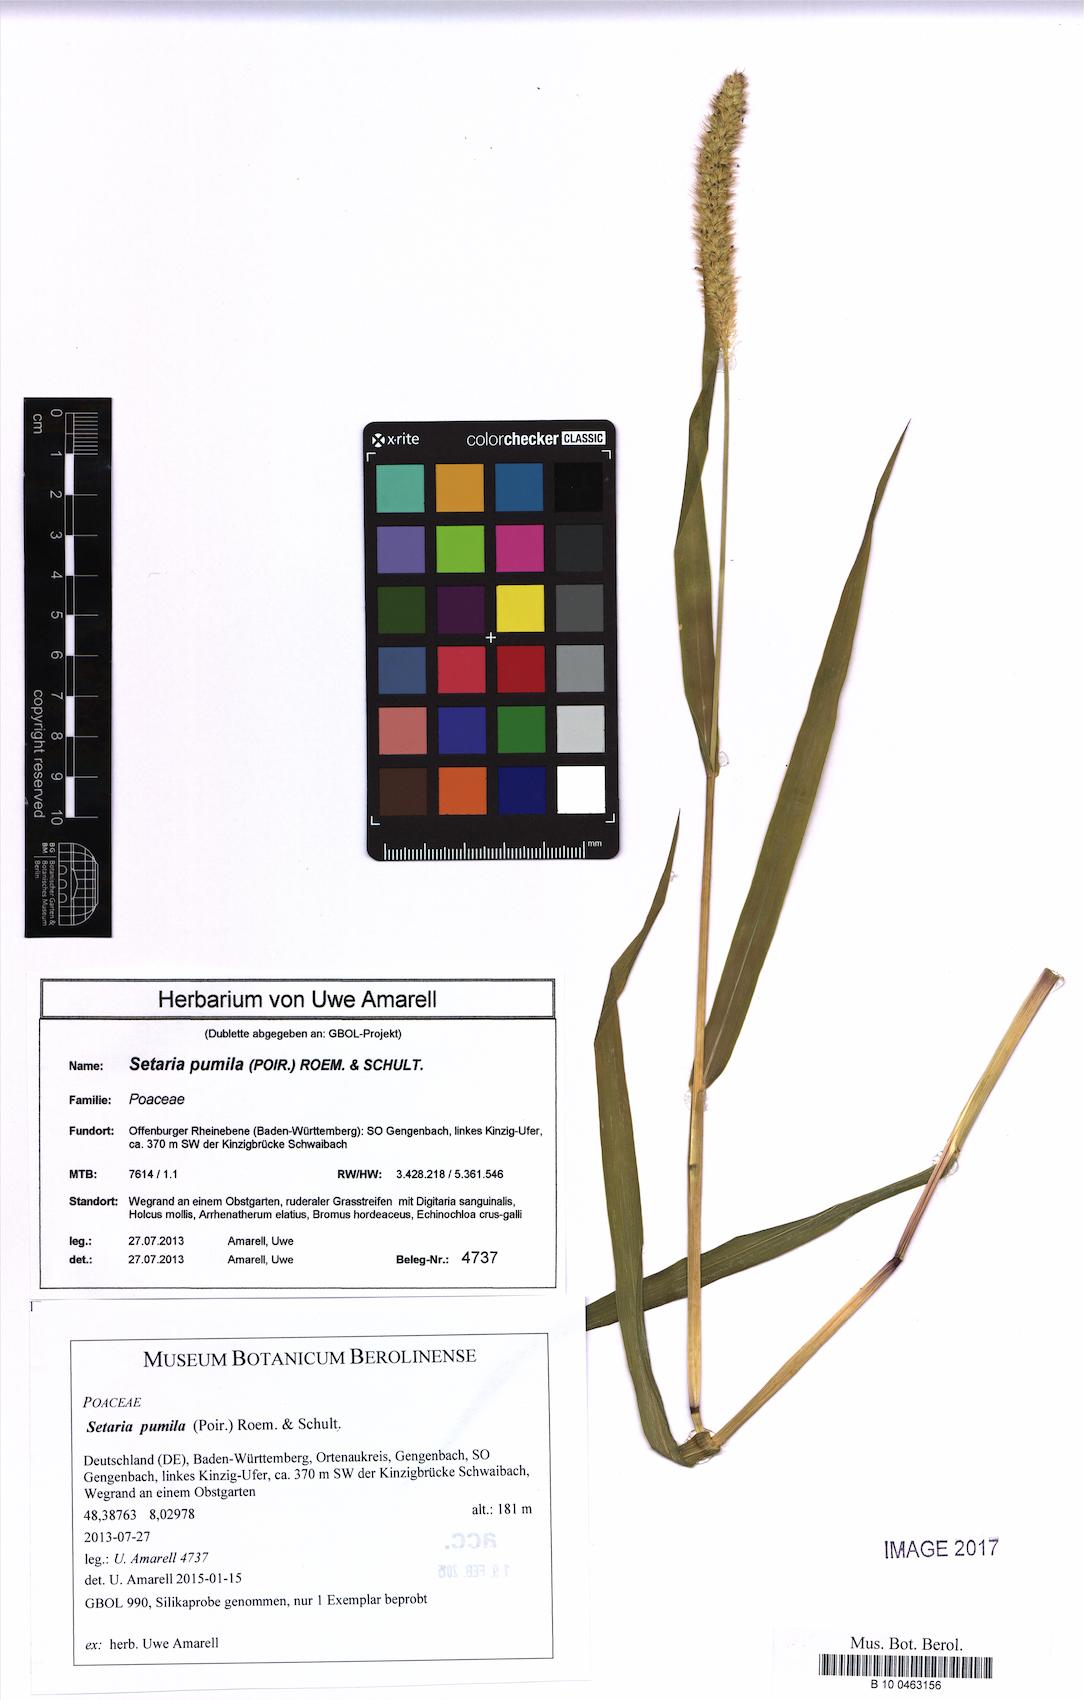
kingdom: Plantae
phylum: Tracheophyta
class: Liliopsida
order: Poales
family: Poaceae
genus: Setaria
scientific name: Setaria pumila
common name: Yellow bristle-grass
